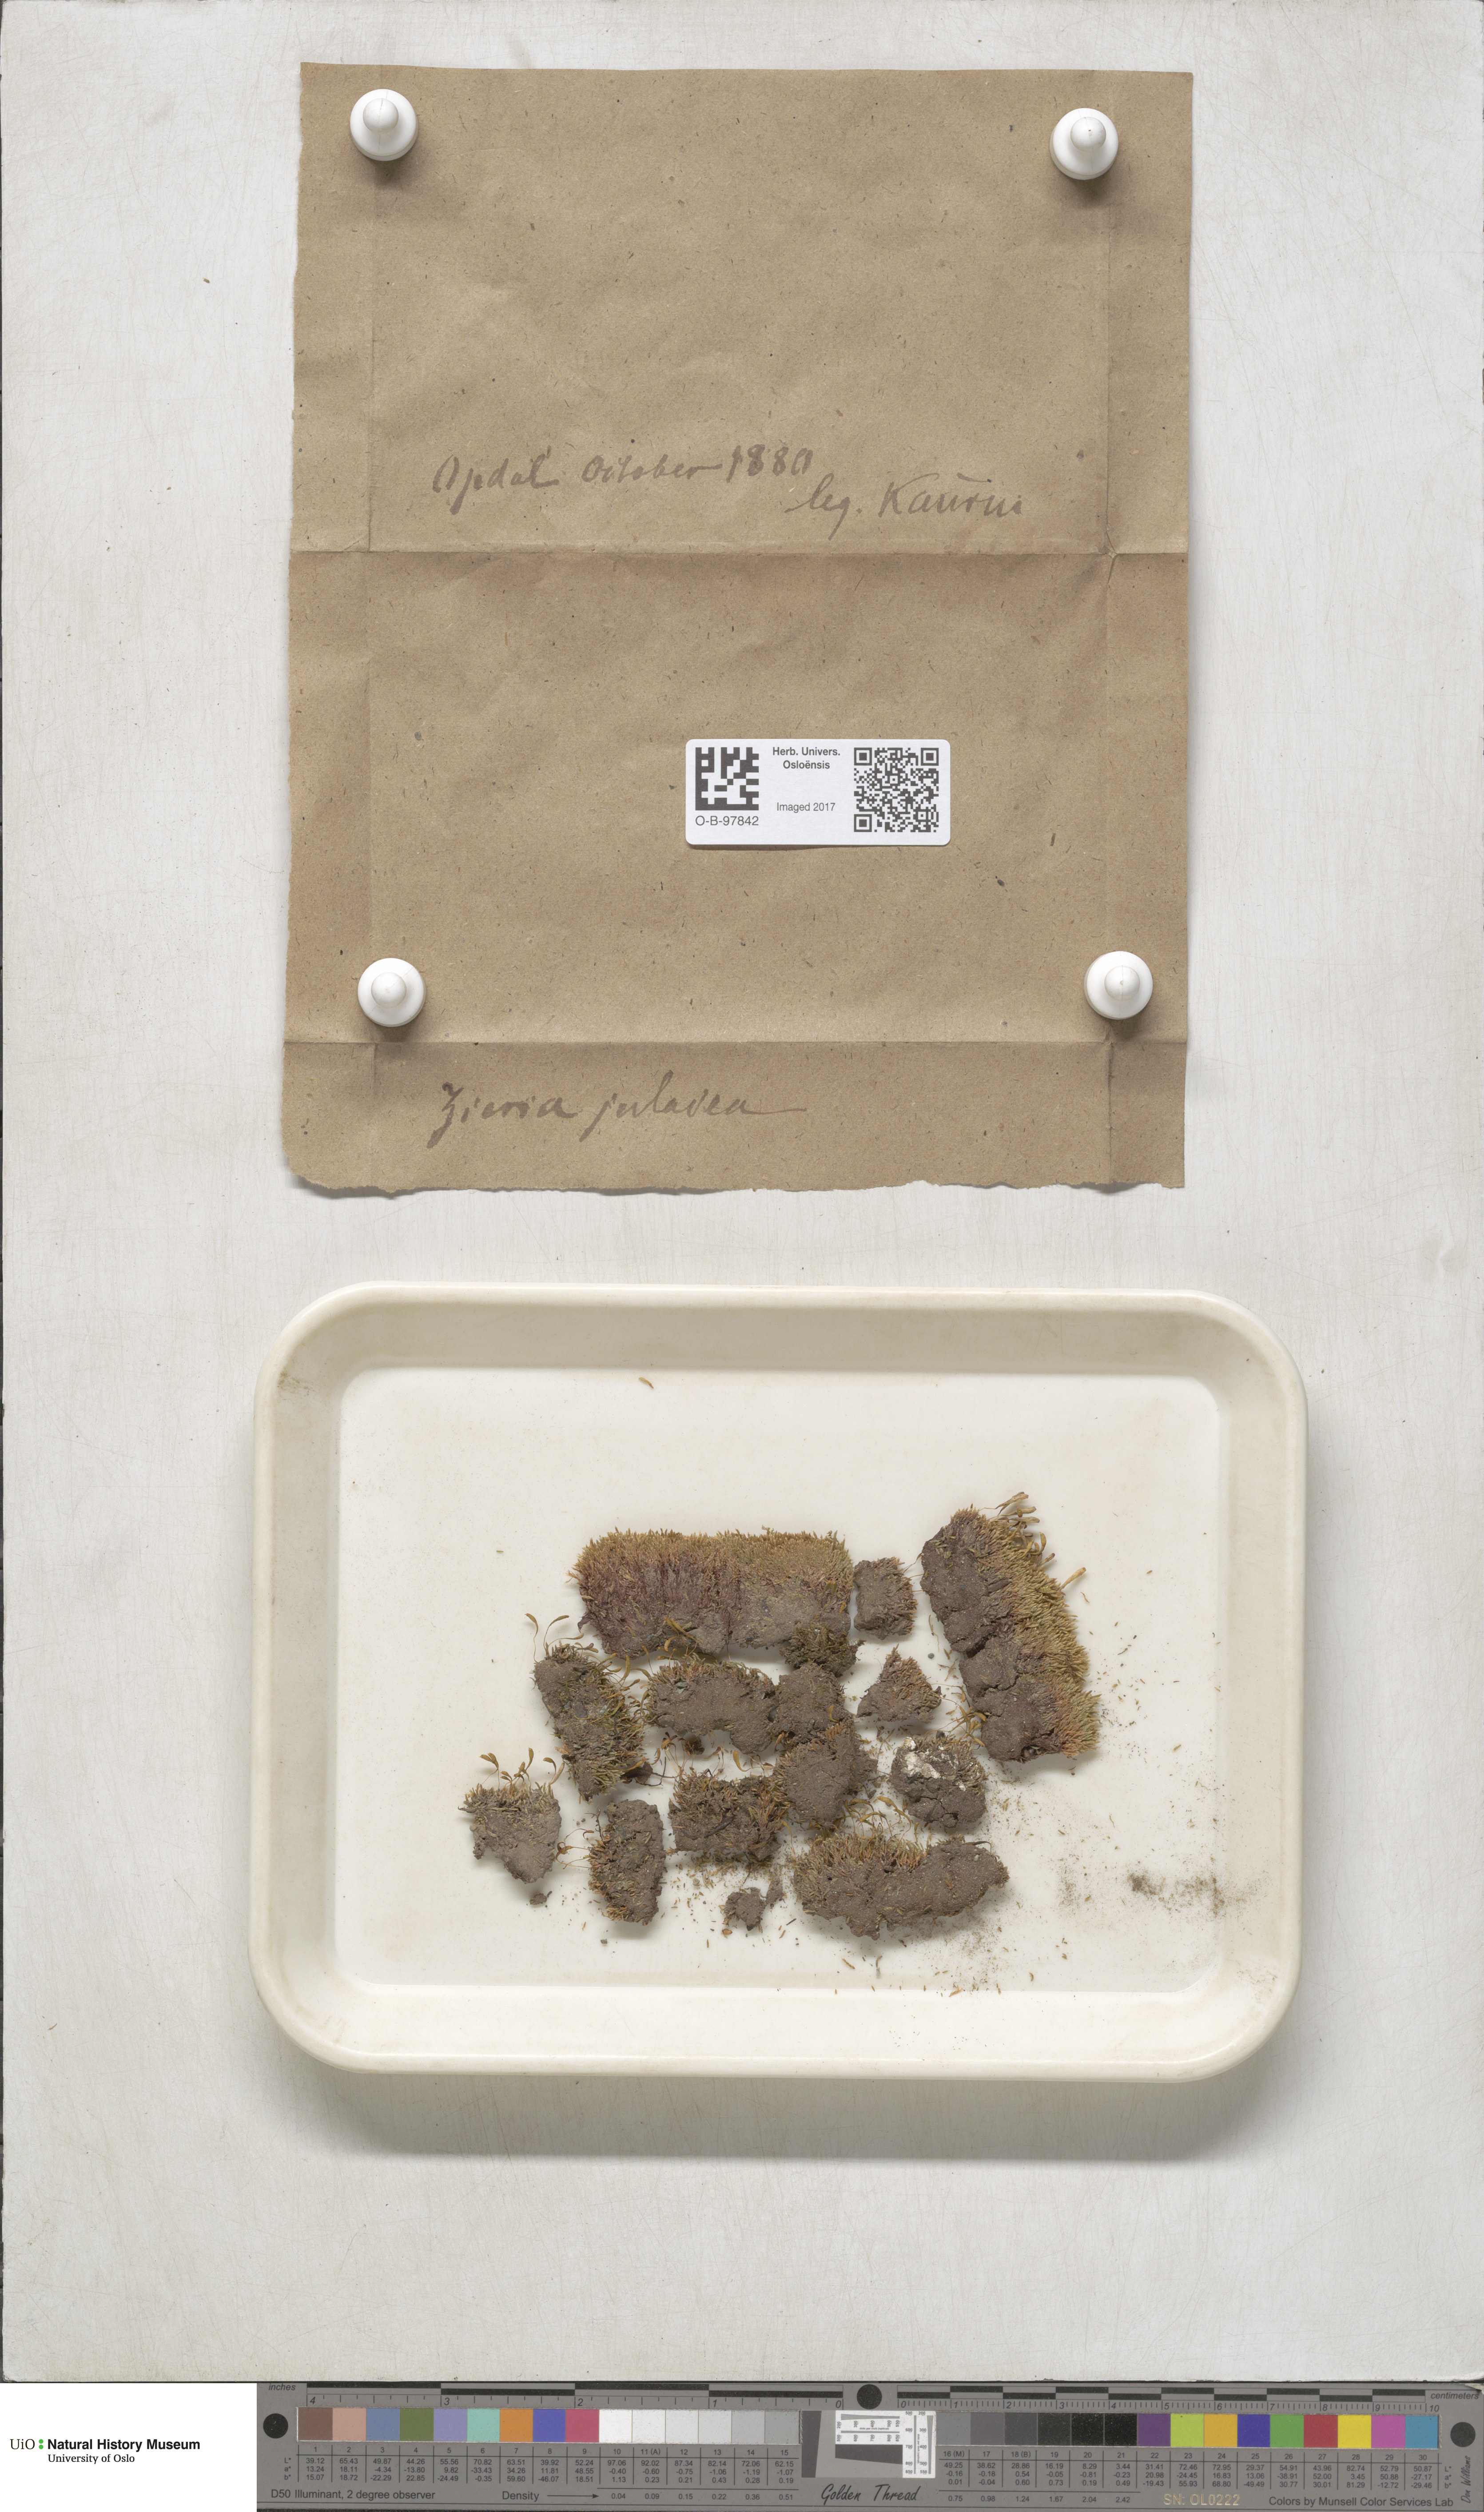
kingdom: Plantae
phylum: Bryophyta
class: Bryopsida
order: Bryales
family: Bryaceae
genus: Plagiobryum
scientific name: Plagiobryum zieri
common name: Zier's hump moss
